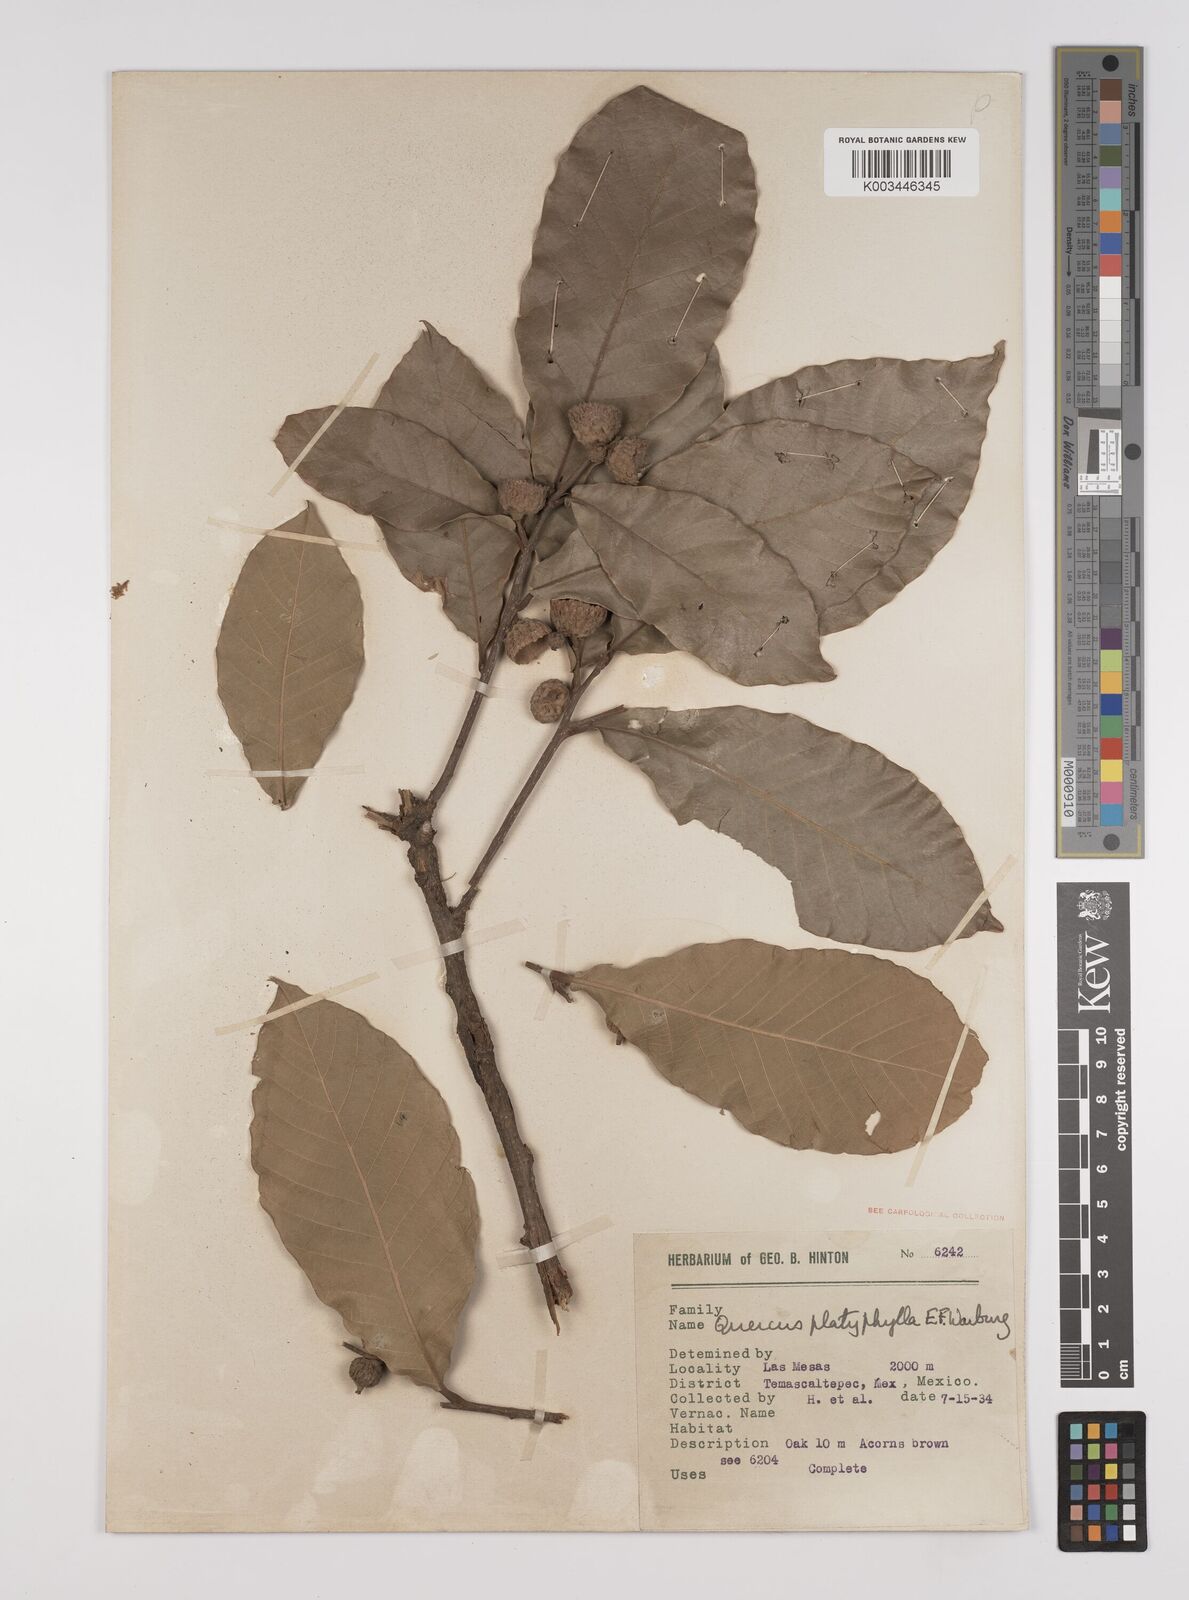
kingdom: Plantae
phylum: Tracheophyta
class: Magnoliopsida
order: Fagales
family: Fagaceae
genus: Quercus
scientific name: Quercus
